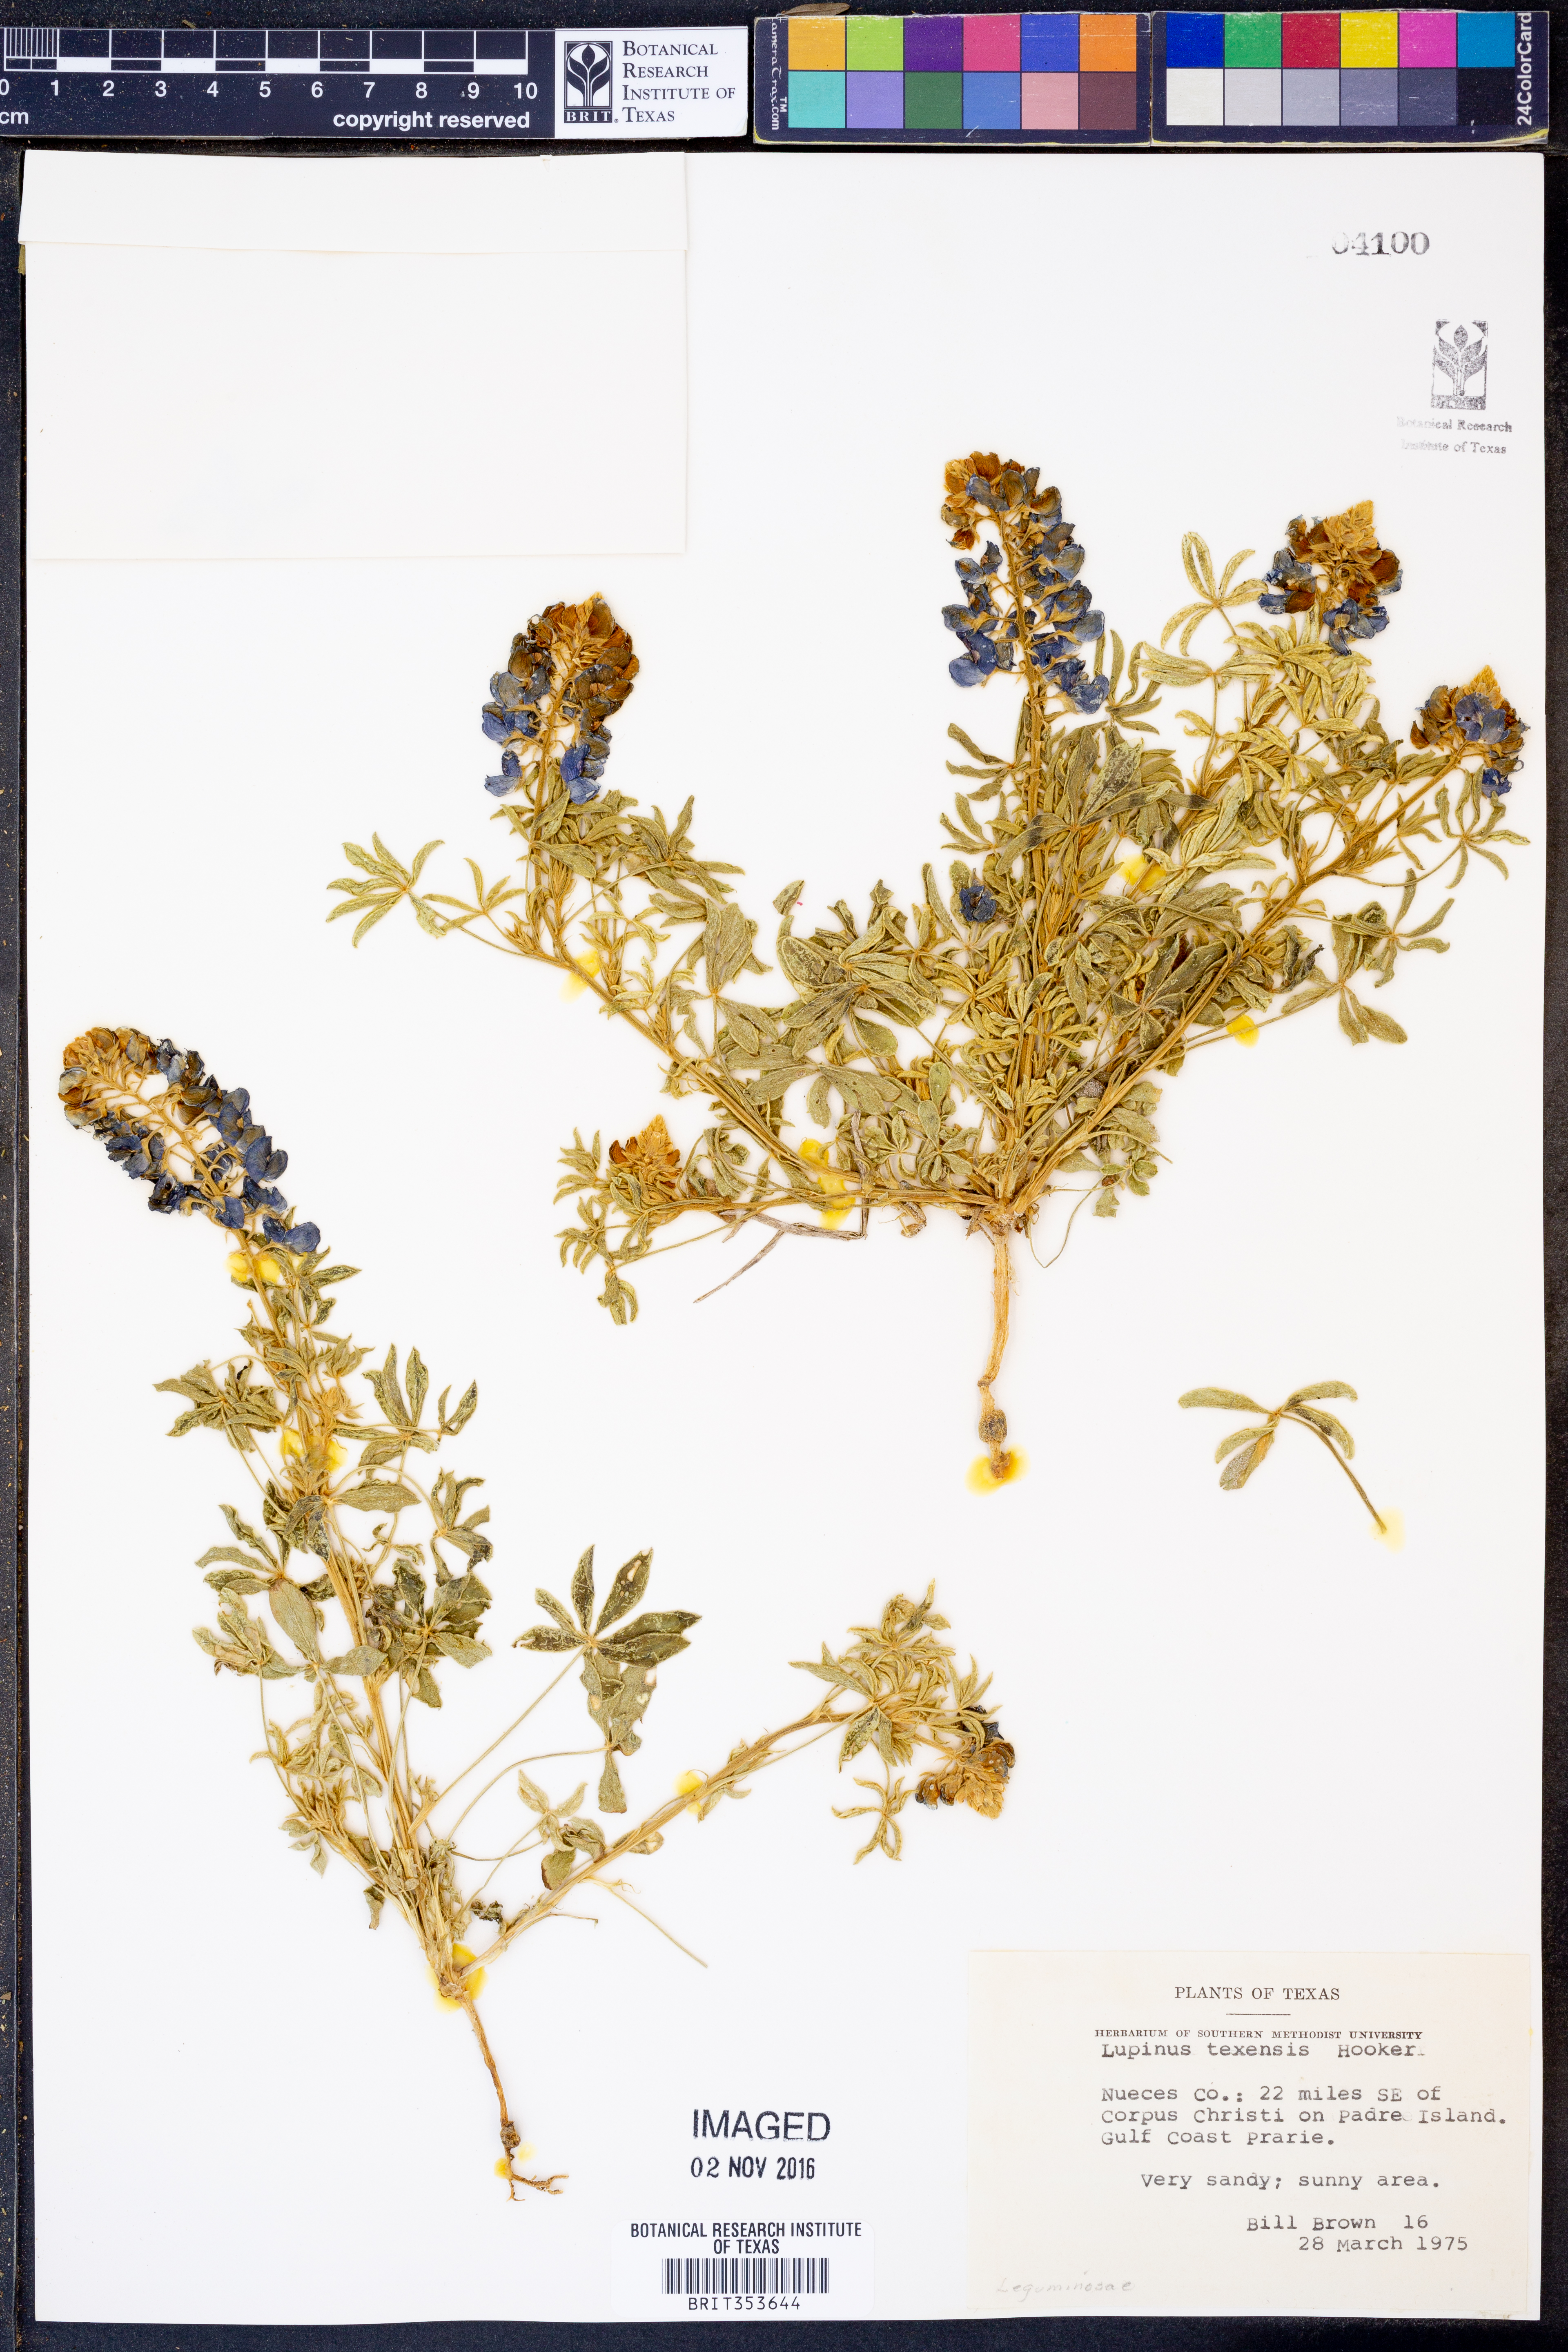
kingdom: Plantae
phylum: Tracheophyta
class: Magnoliopsida
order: Fabales
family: Fabaceae
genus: Lupinus
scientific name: Lupinus texensis
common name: Texas bluebonnet
